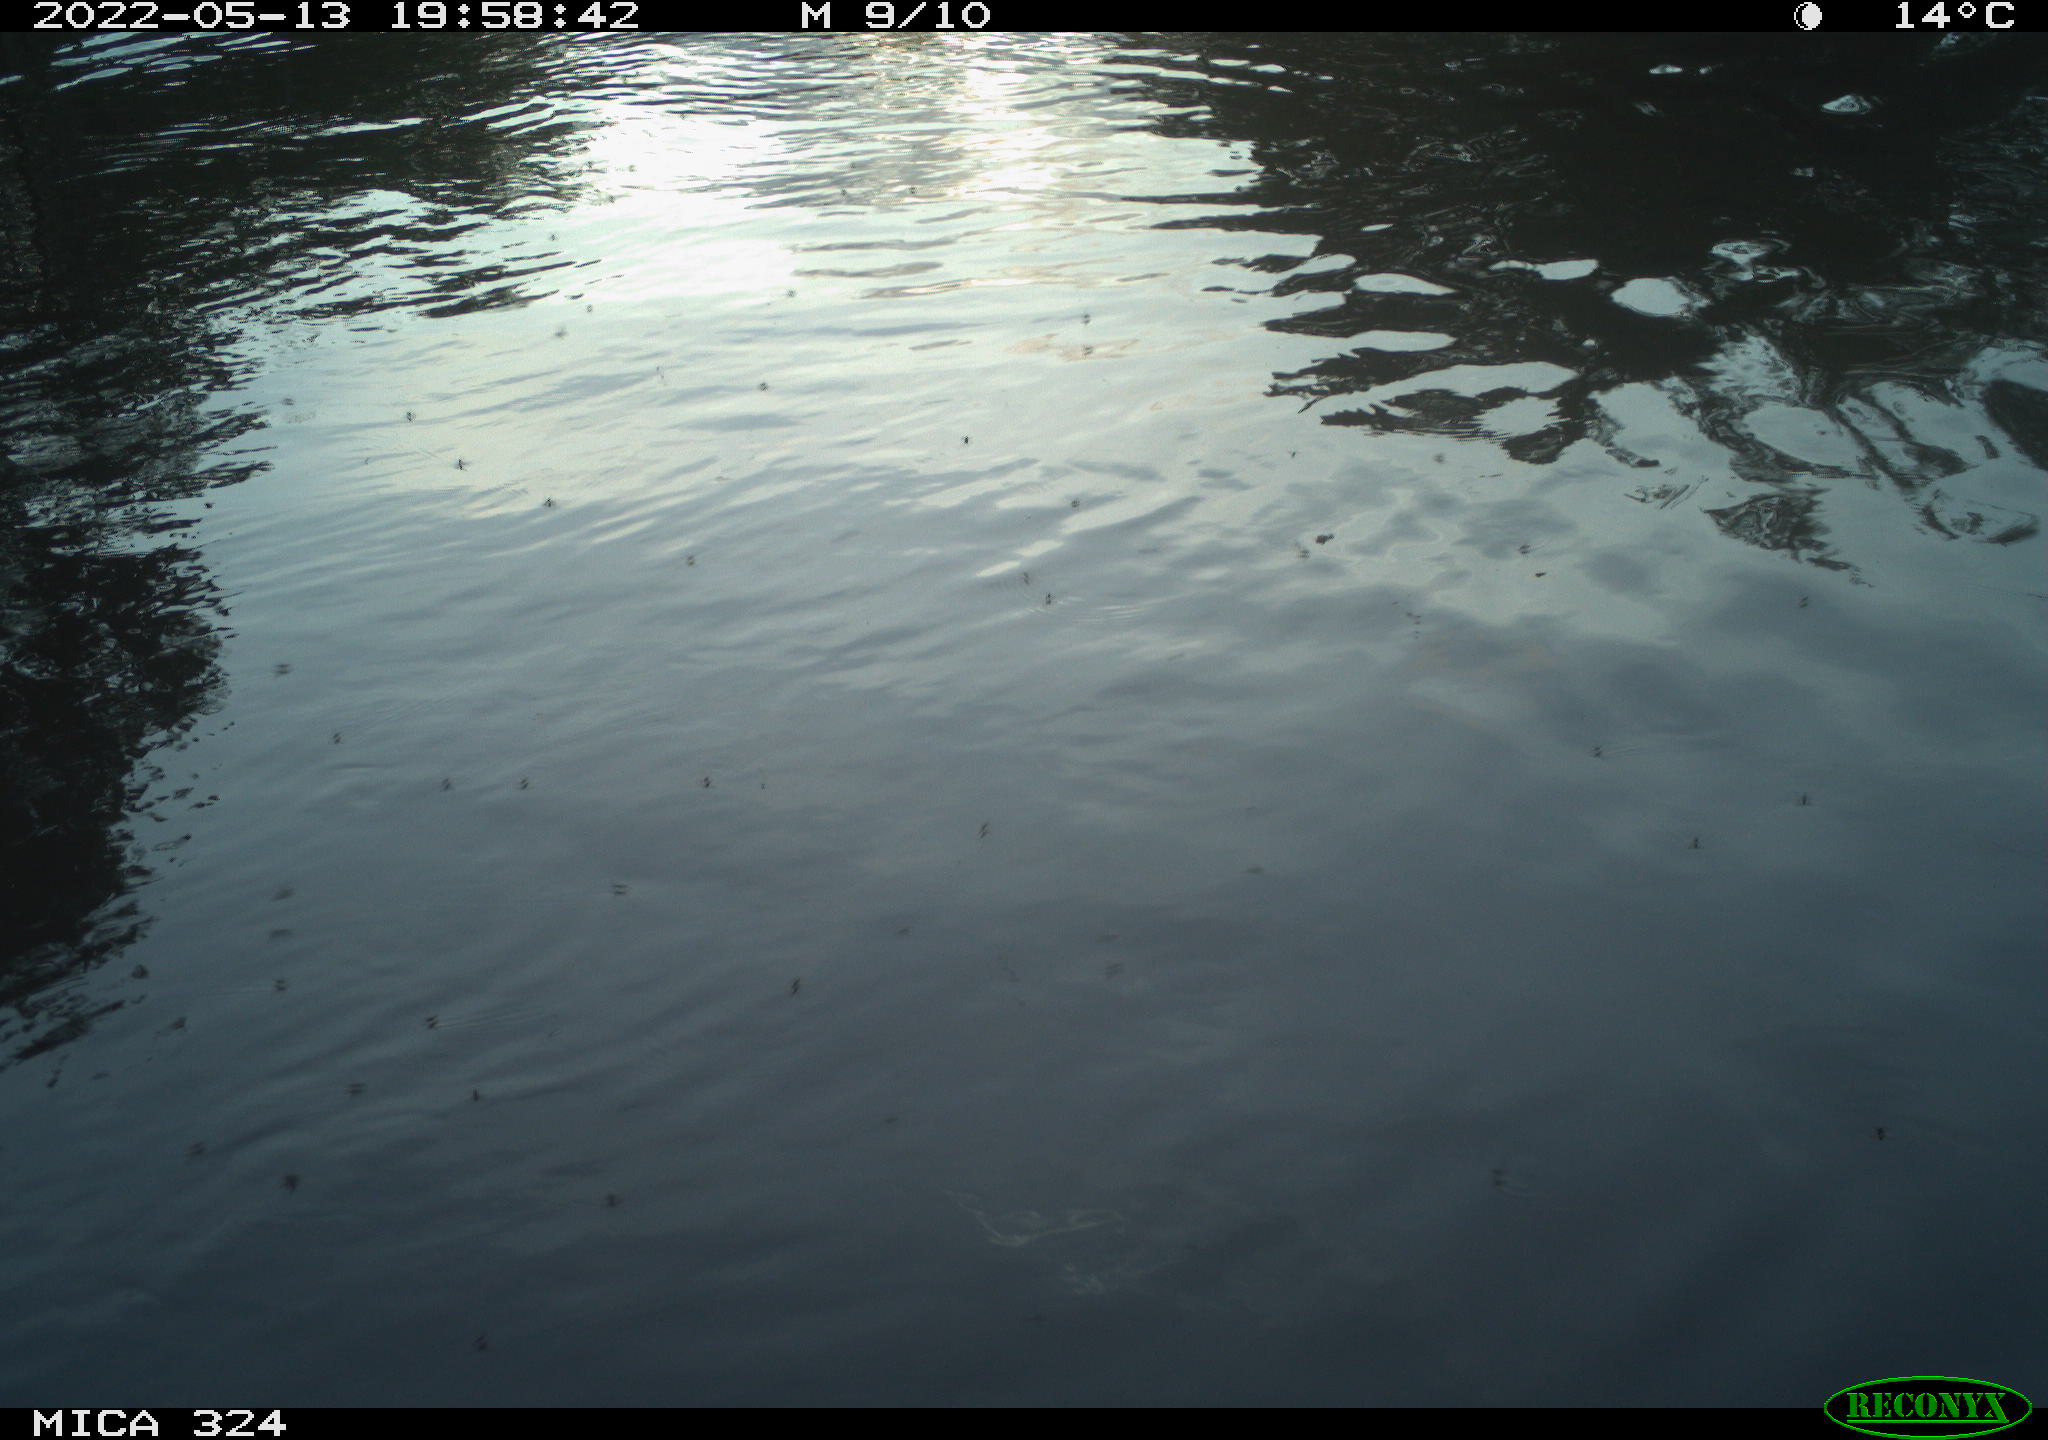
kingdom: Animalia
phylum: Chordata
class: Aves
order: Gruiformes
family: Rallidae
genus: Fulica
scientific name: Fulica atra
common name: Eurasian coot
